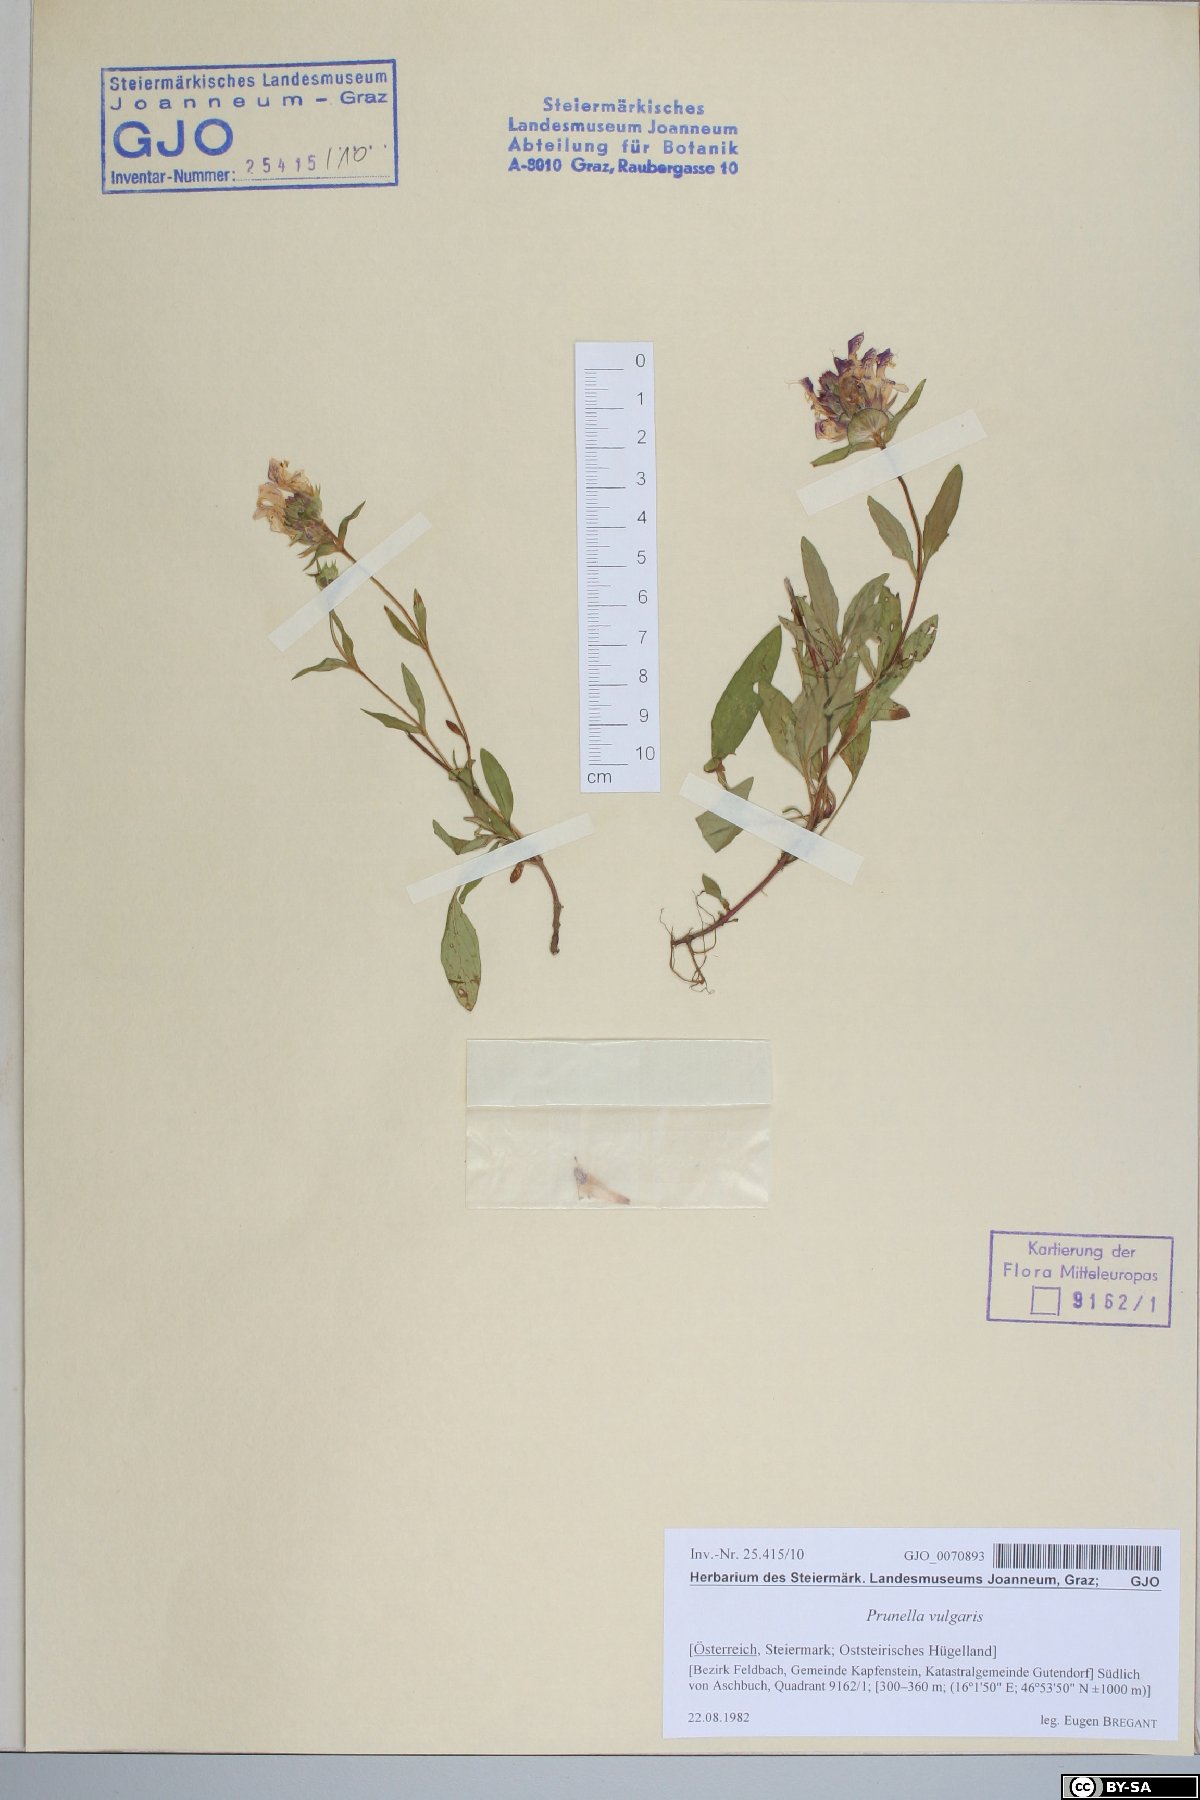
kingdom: Plantae
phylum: Tracheophyta
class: Magnoliopsida
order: Lamiales
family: Lamiaceae
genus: Prunella
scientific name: Prunella vulgaris
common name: Heal-all
